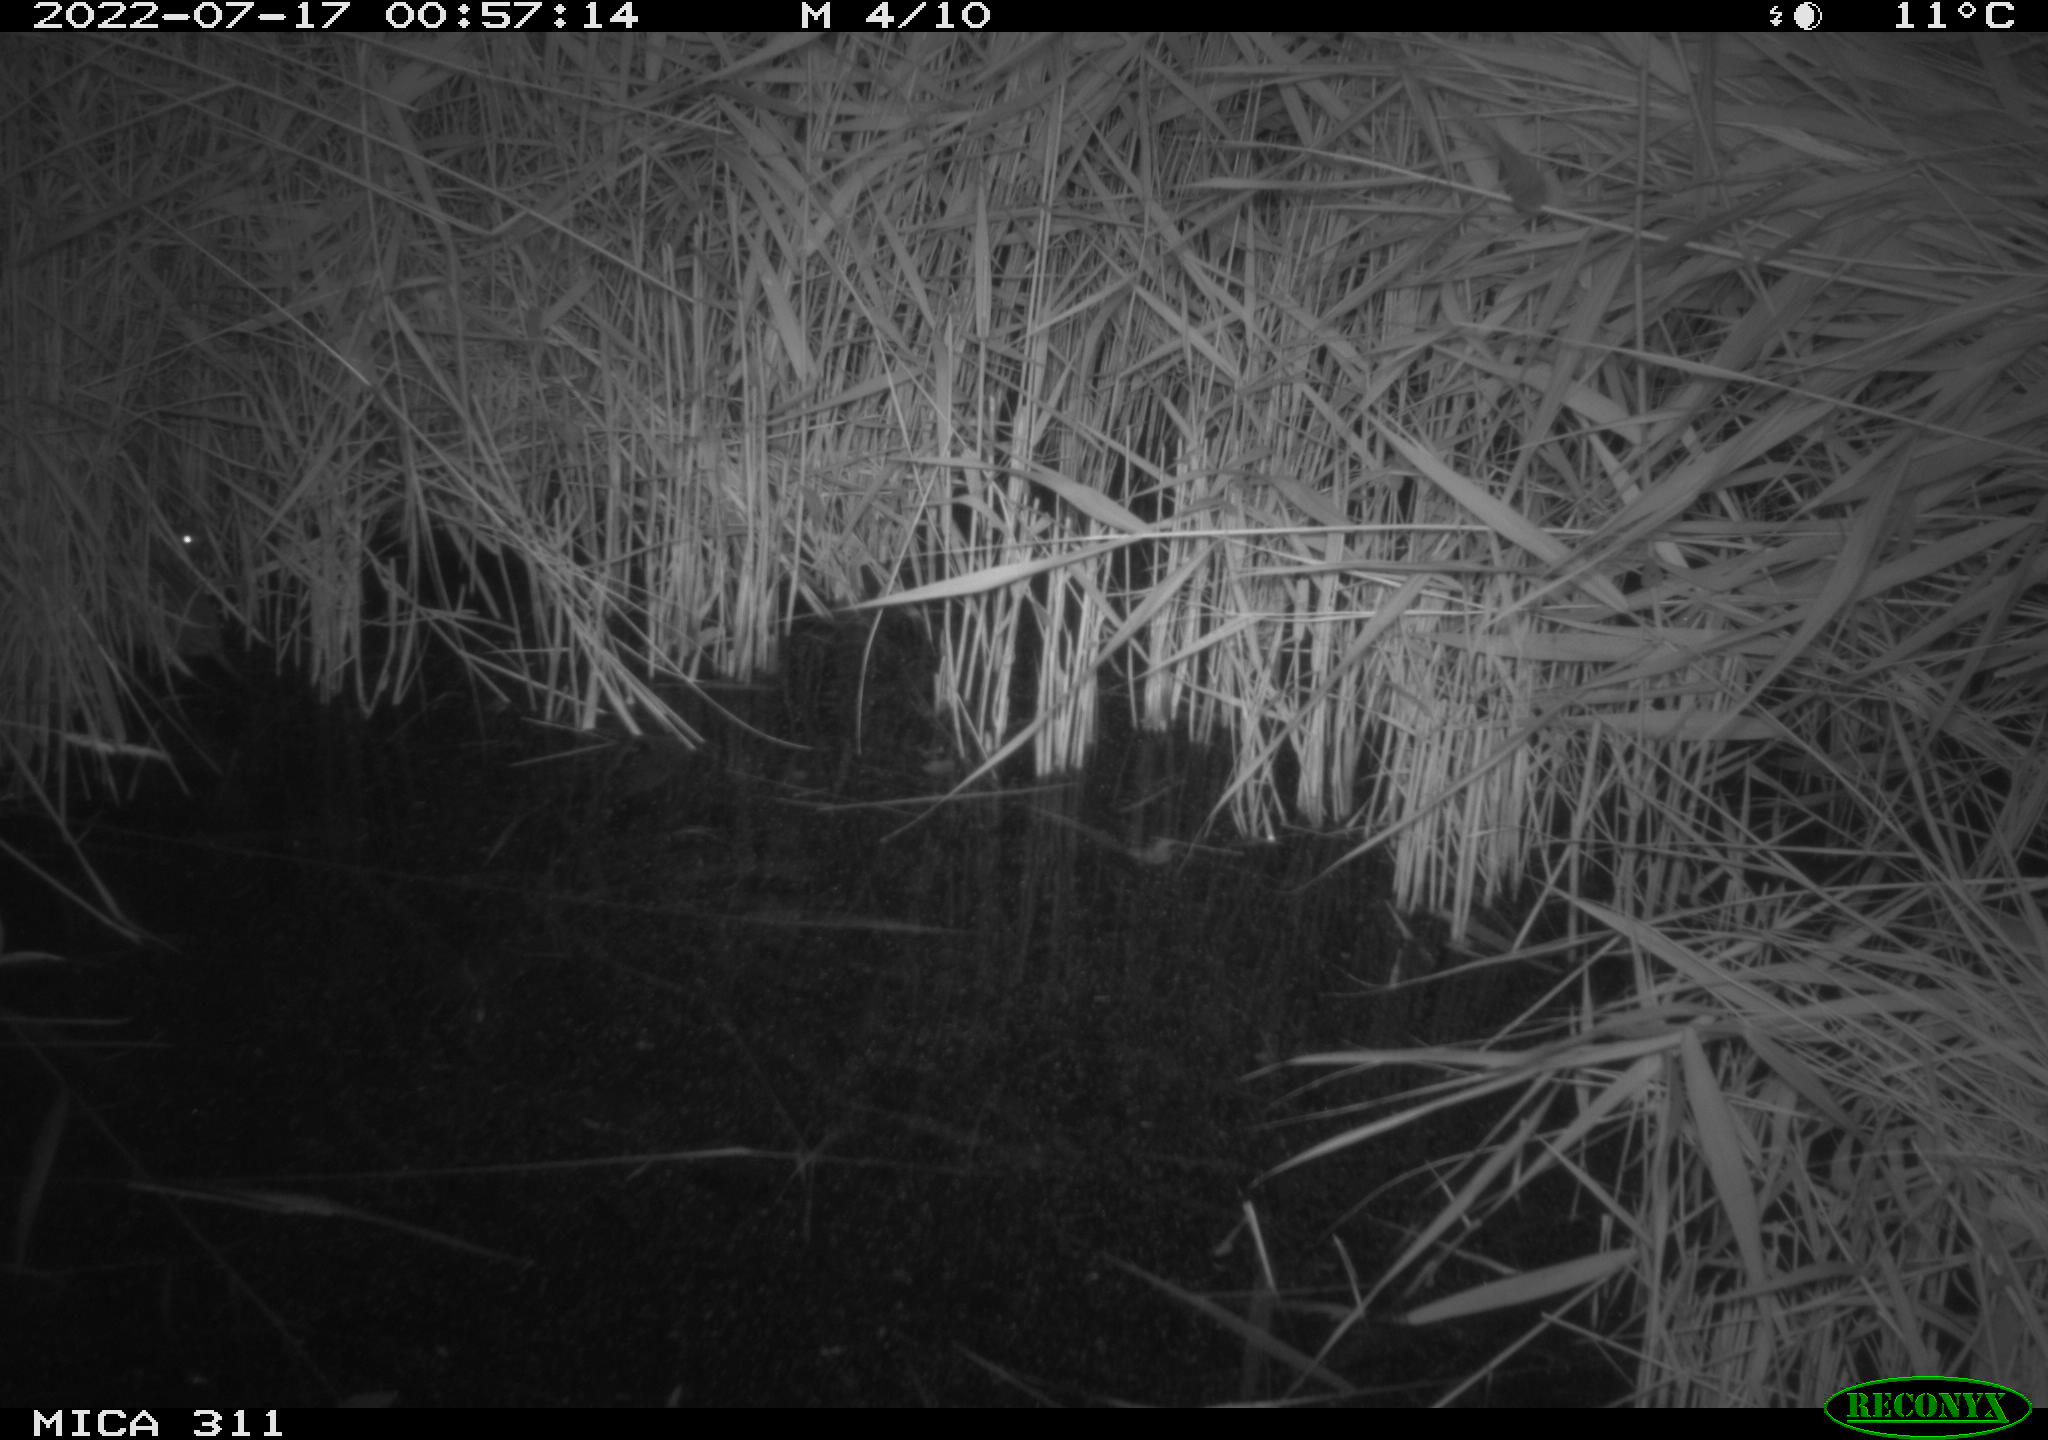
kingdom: Animalia
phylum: Chordata
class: Mammalia
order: Rodentia
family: Muridae
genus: Rattus
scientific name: Rattus norvegicus
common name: Brown rat
